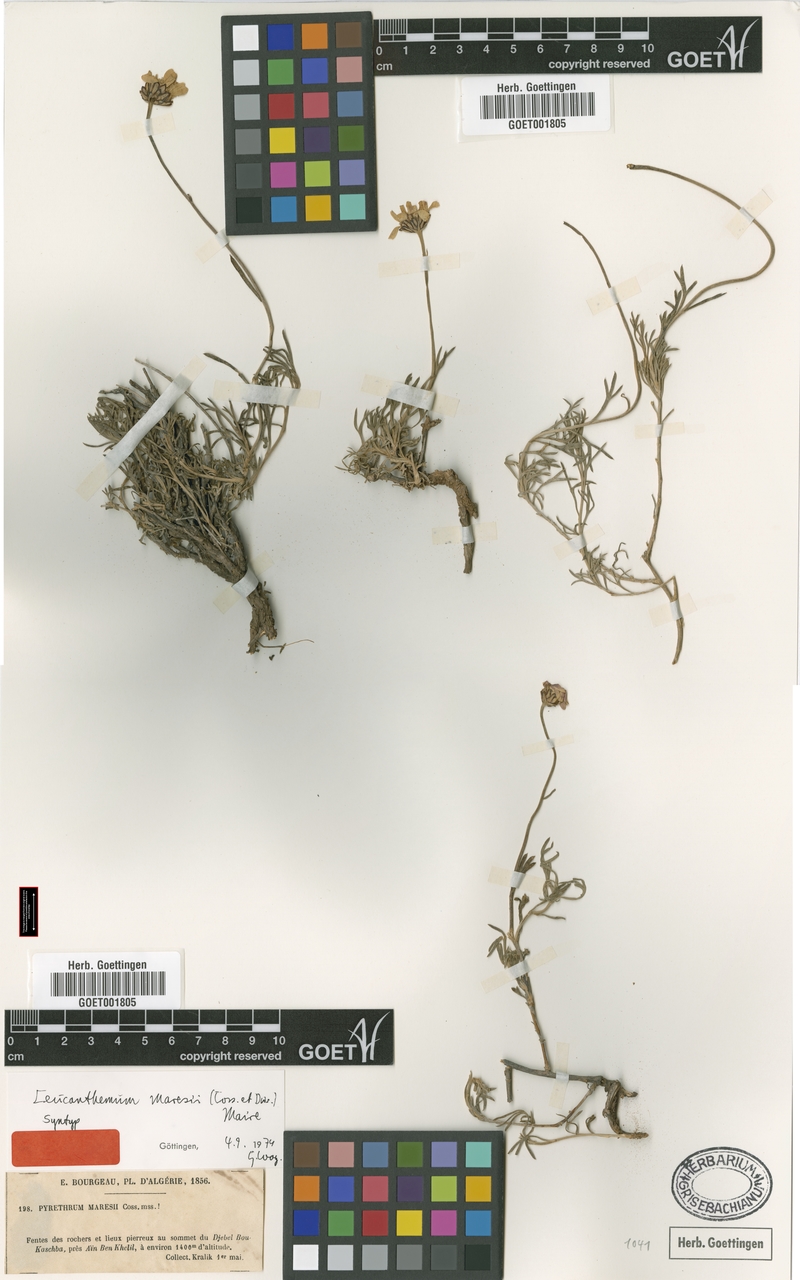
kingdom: Plantae
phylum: Tracheophyta
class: Magnoliopsida
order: Asterales
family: Asteraceae
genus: Rhodanthemum
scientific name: Rhodanthemum maresii
